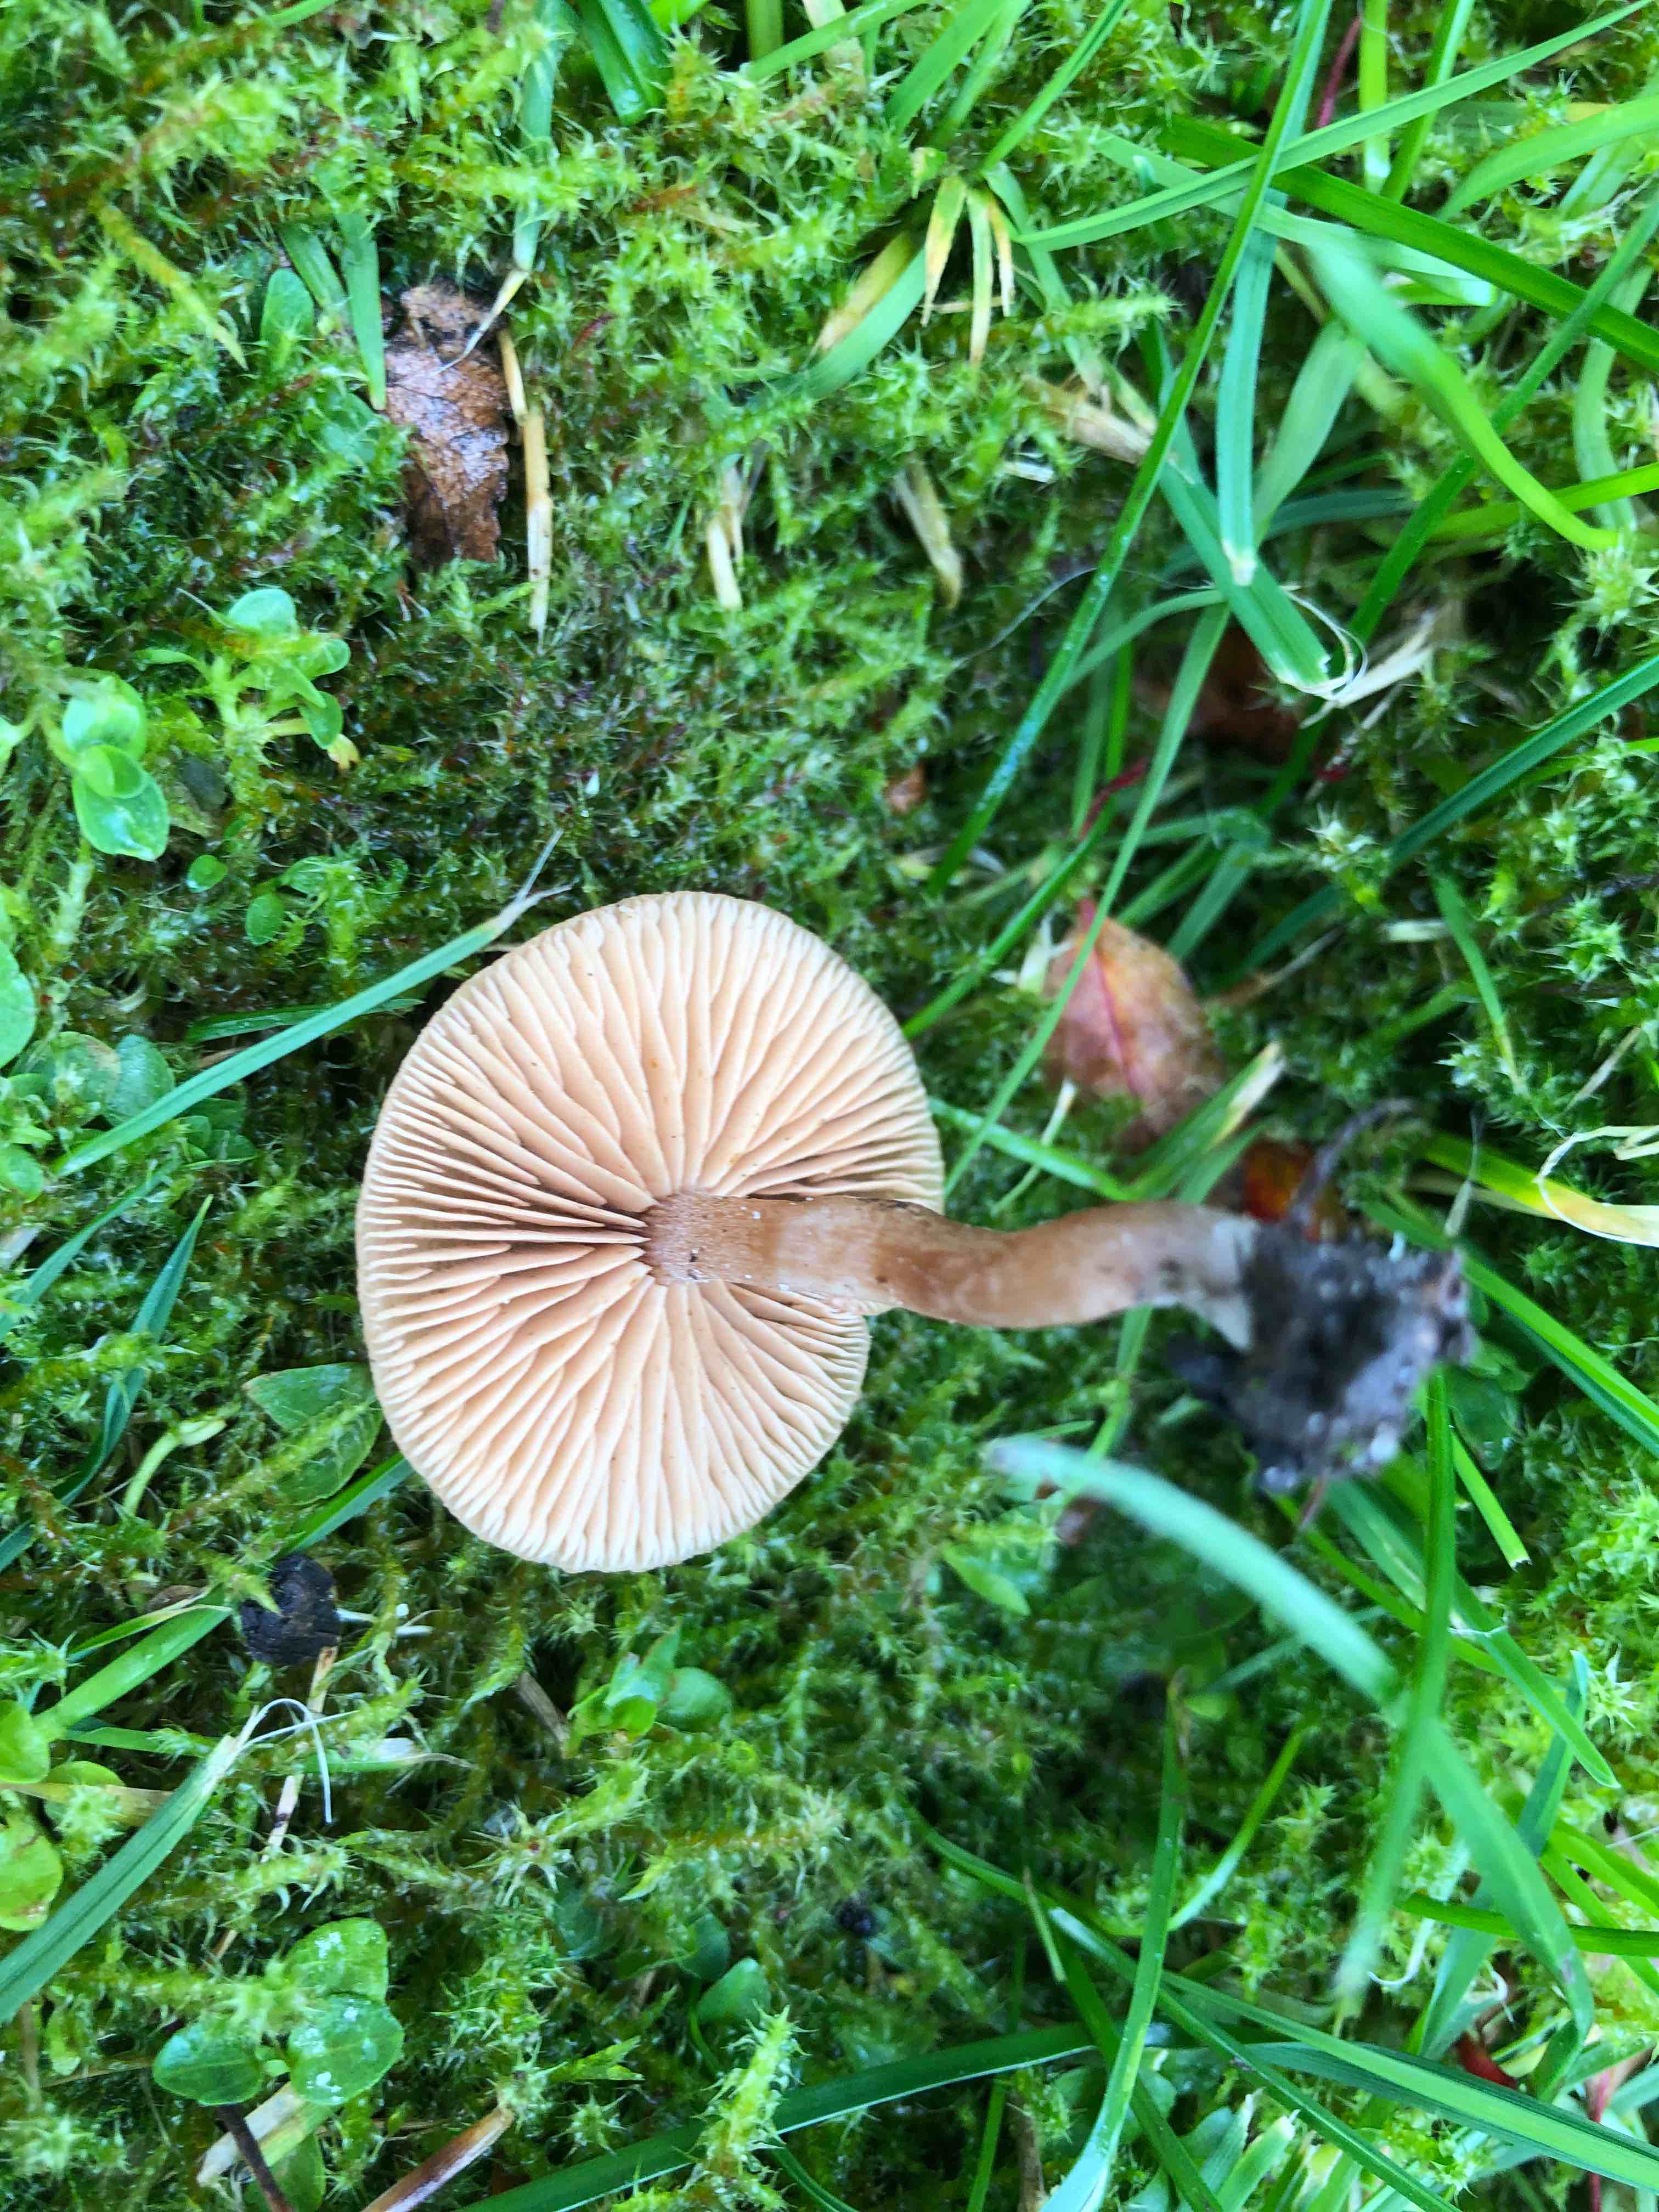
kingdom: Fungi
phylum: Basidiomycota
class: Agaricomycetes
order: Agaricales
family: Tubariaceae
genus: Tubaria
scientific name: Tubaria furfuracea
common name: kliddet fnughat
